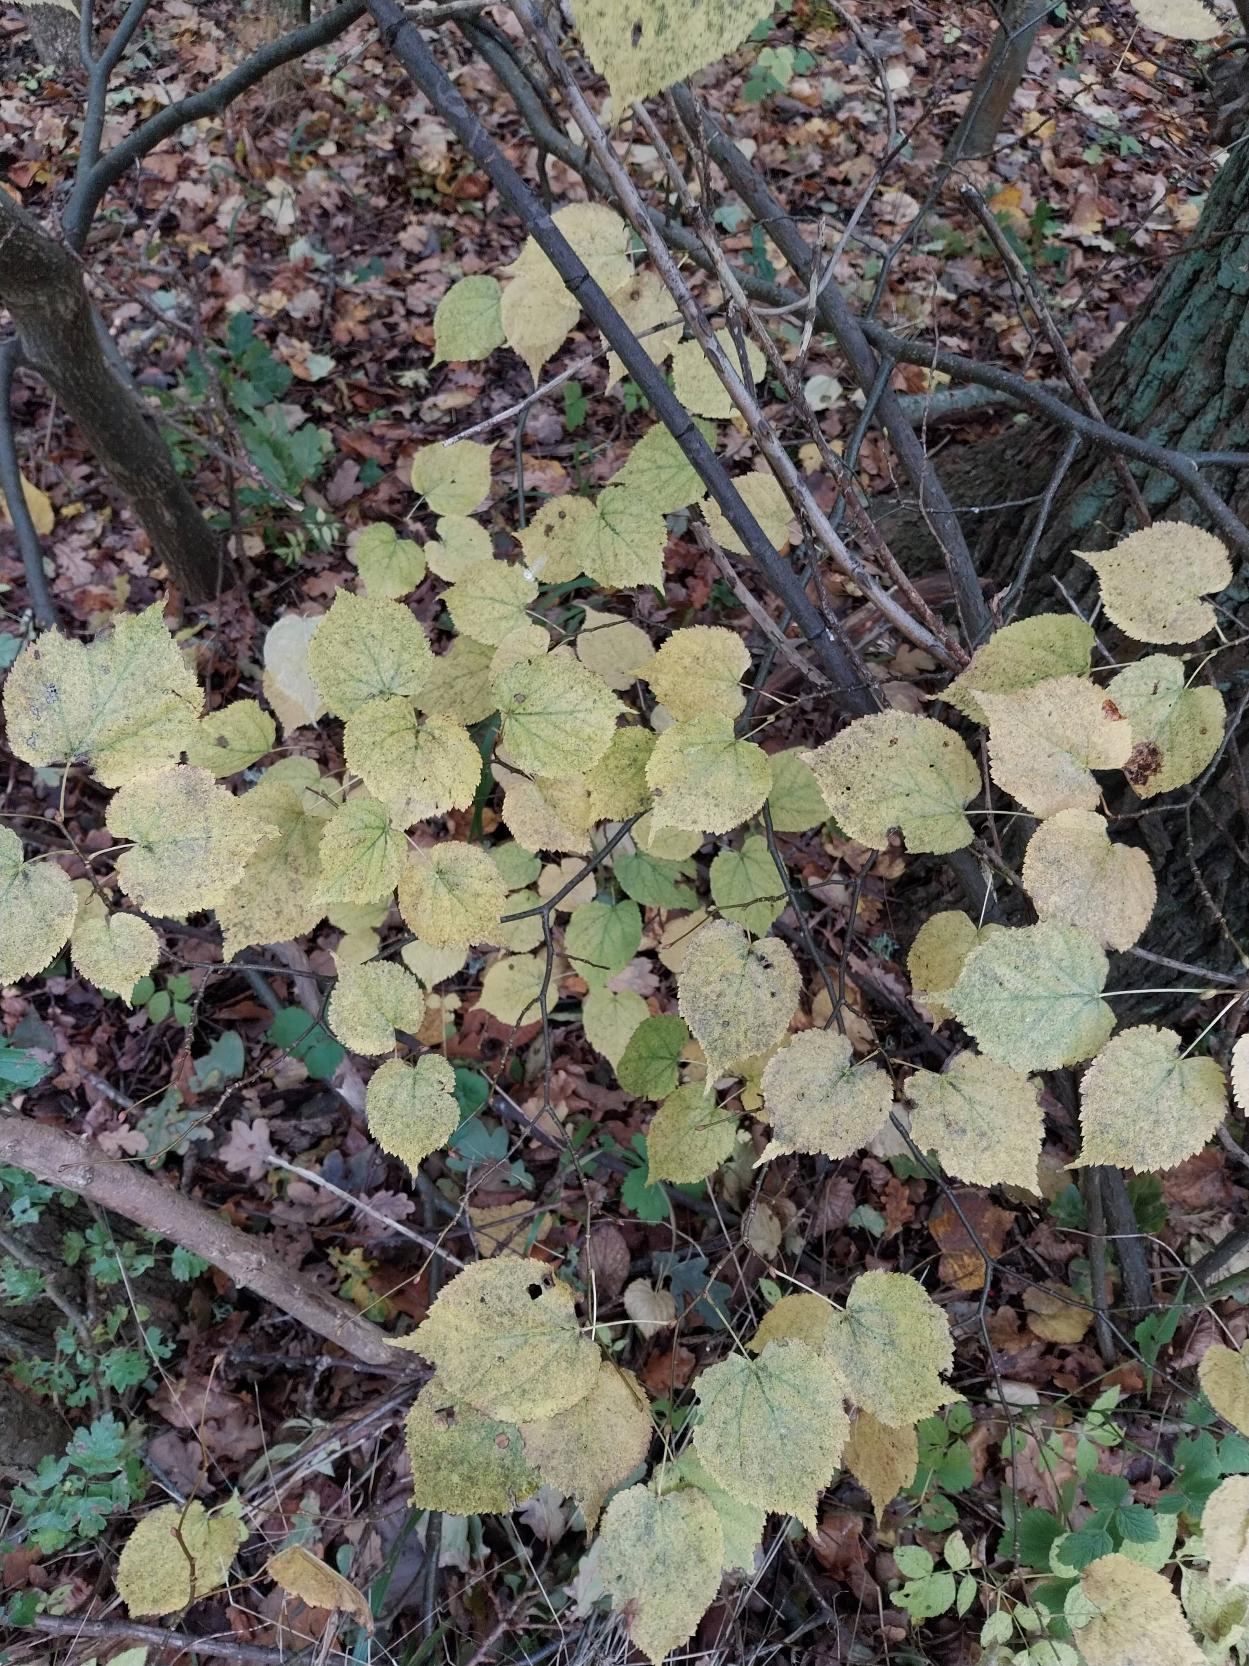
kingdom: Plantae
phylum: Tracheophyta
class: Magnoliopsida
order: Malvales
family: Malvaceae
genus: Tilia
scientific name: Tilia cordata
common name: Småbladet lind
